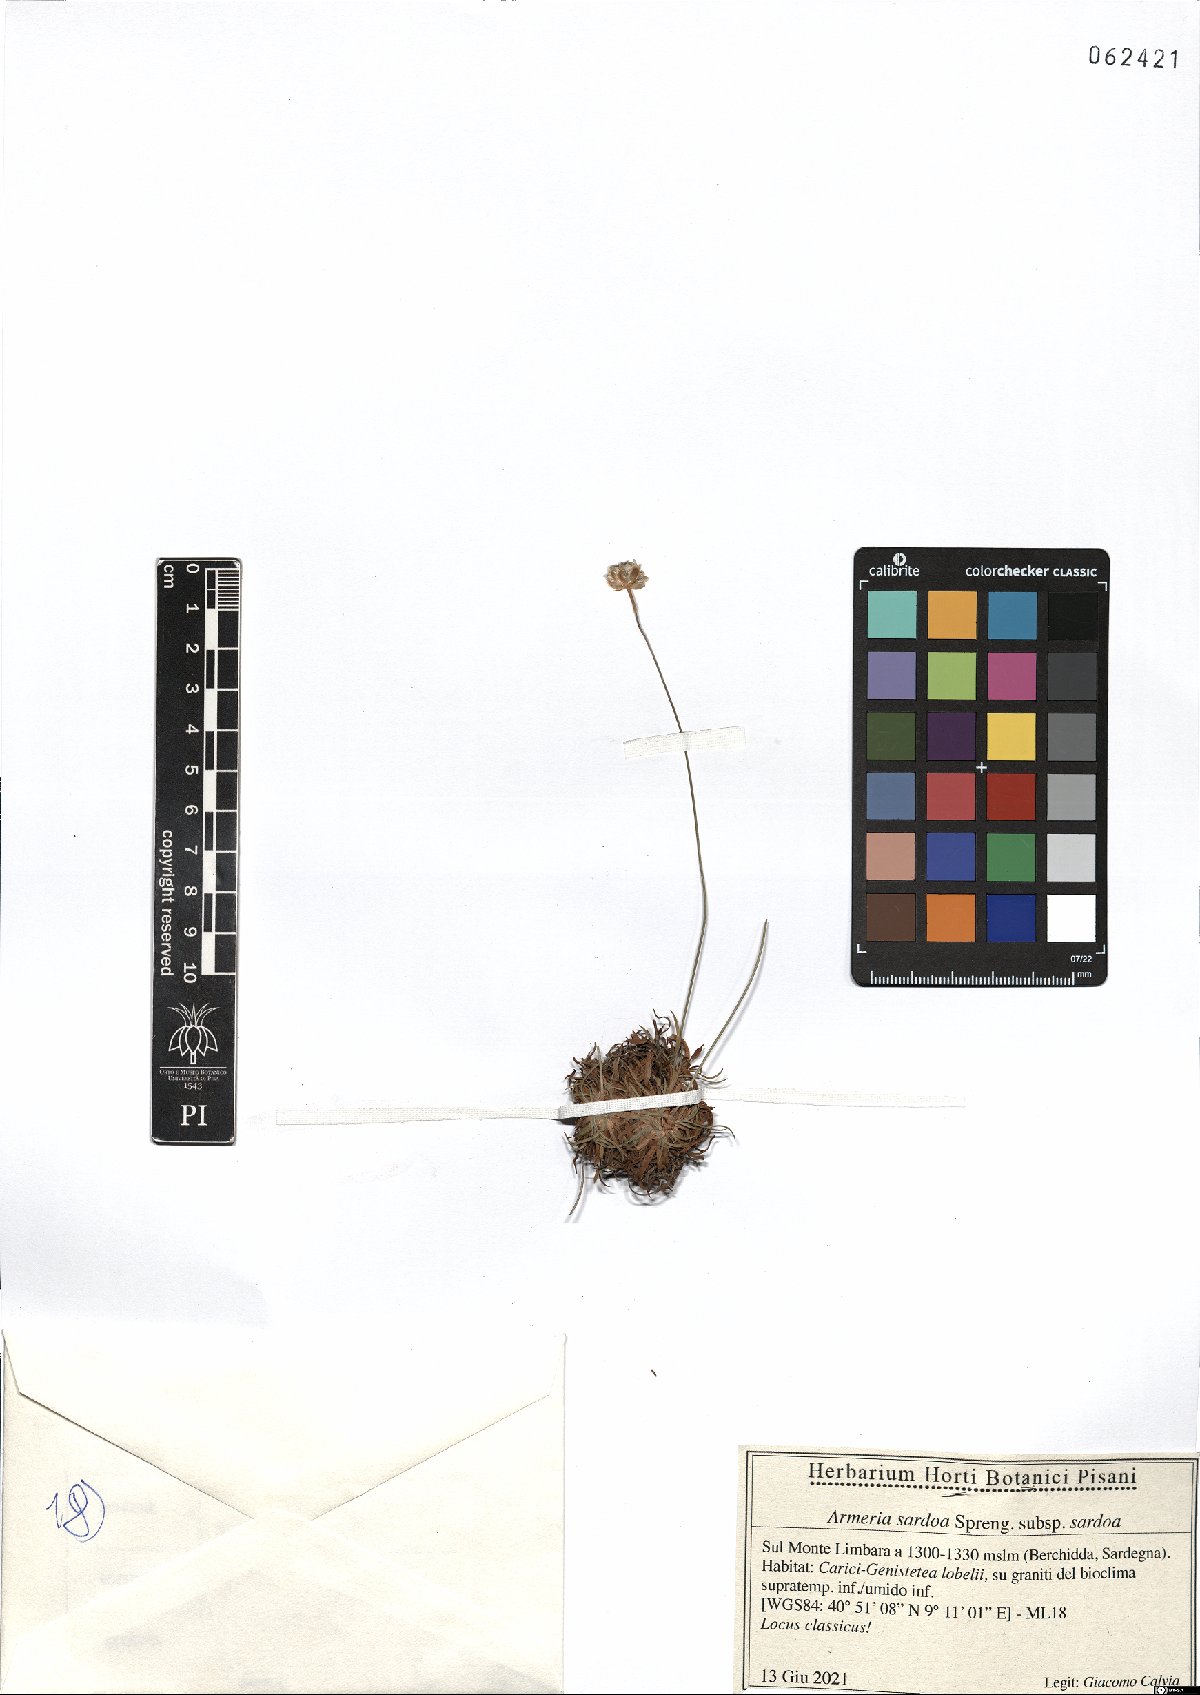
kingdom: Plantae
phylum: Tracheophyta
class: Magnoliopsida
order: Caryophyllales
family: Plumbaginaceae
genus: Armeria
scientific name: Armeria sardoa
